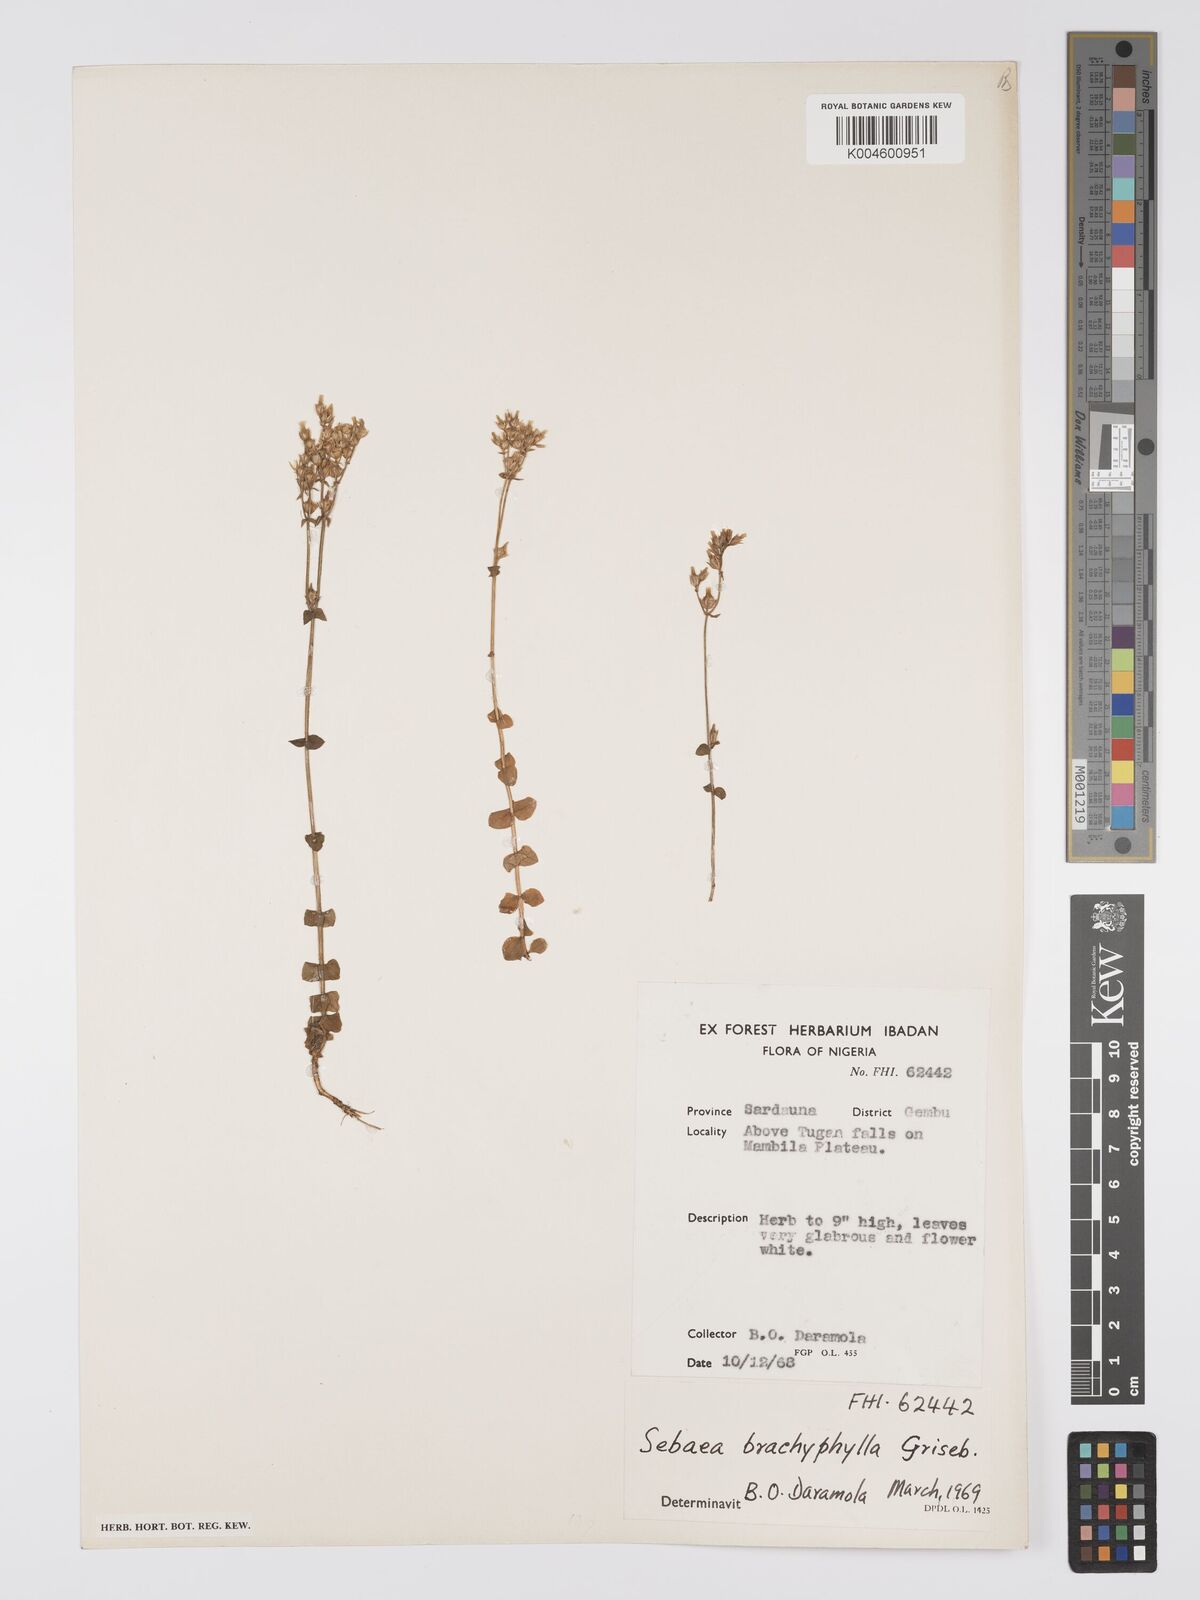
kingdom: Plantae
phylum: Tracheophyta
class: Magnoliopsida
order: Gentianales
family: Gentianaceae
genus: Sebaea
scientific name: Sebaea brachyphylla
